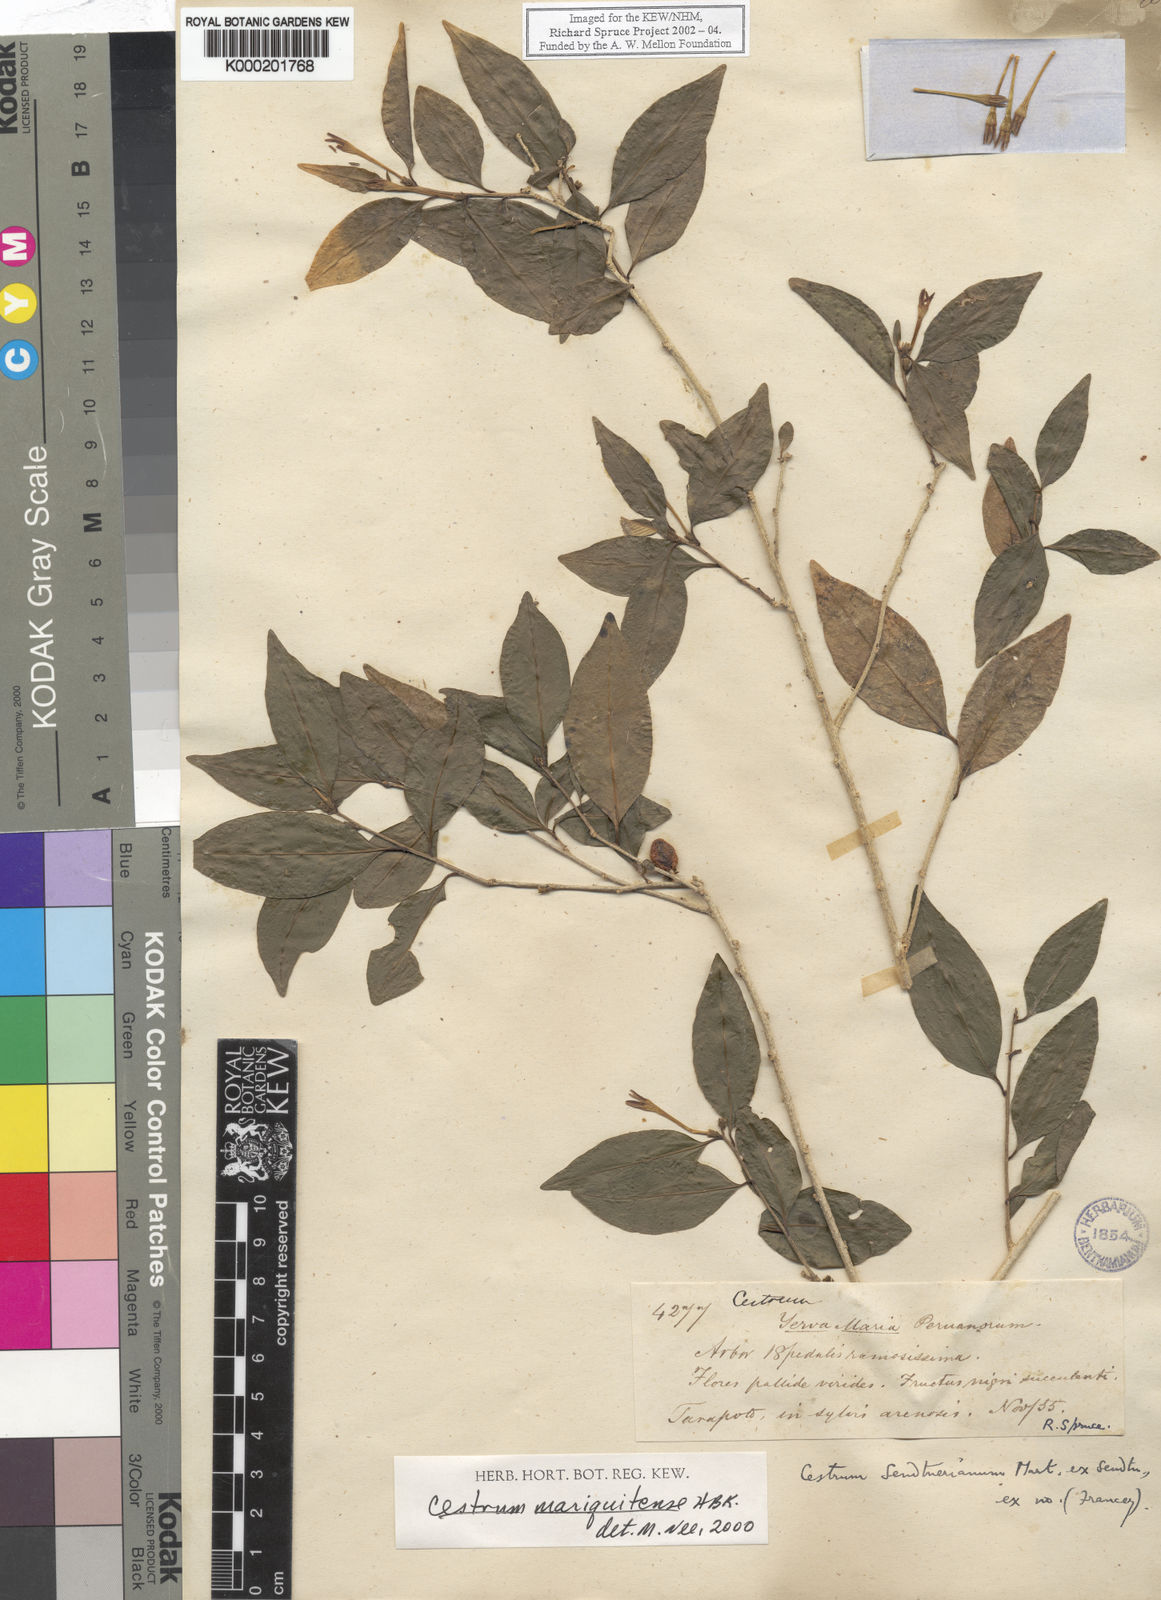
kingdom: Plantae
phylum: Tracheophyta
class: Magnoliopsida
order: Solanales
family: Solanaceae
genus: Cestrum
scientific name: Cestrum
